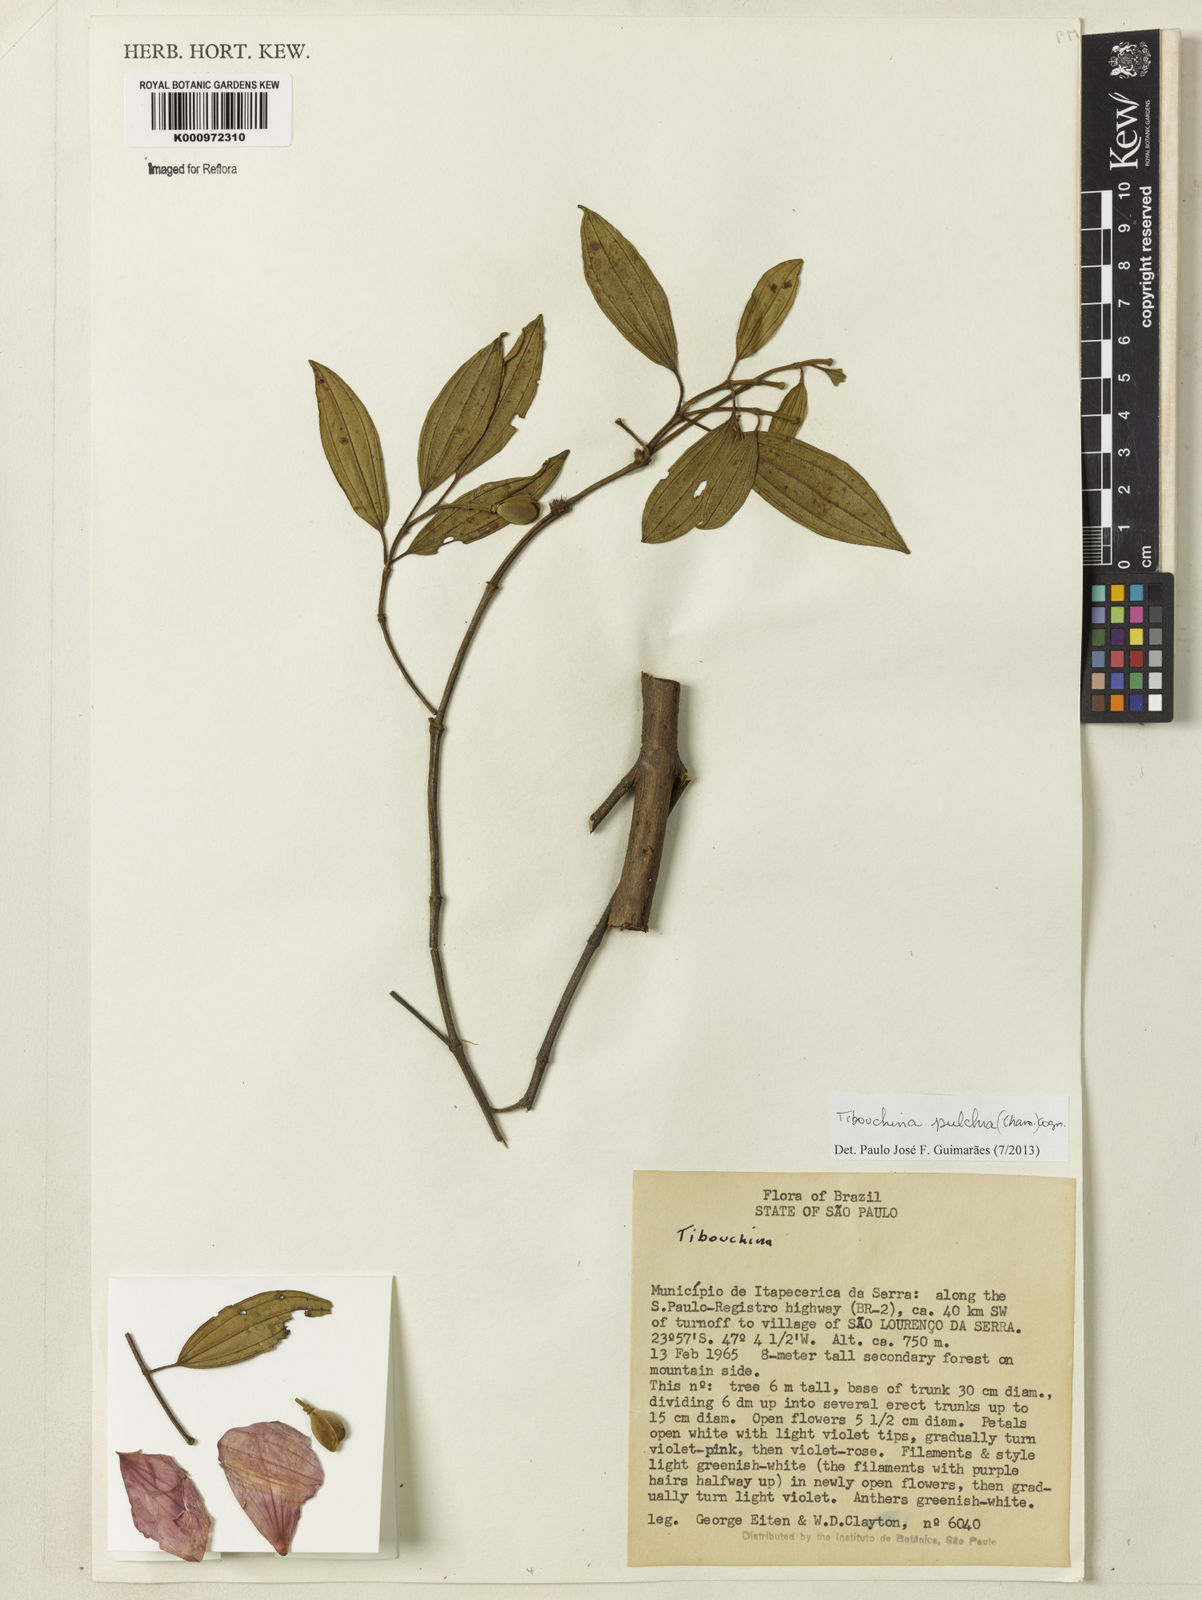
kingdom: Plantae
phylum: Tracheophyta
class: Magnoliopsida
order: Myrtales
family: Melastomataceae
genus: Pleroma
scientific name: Pleroma raddianum
